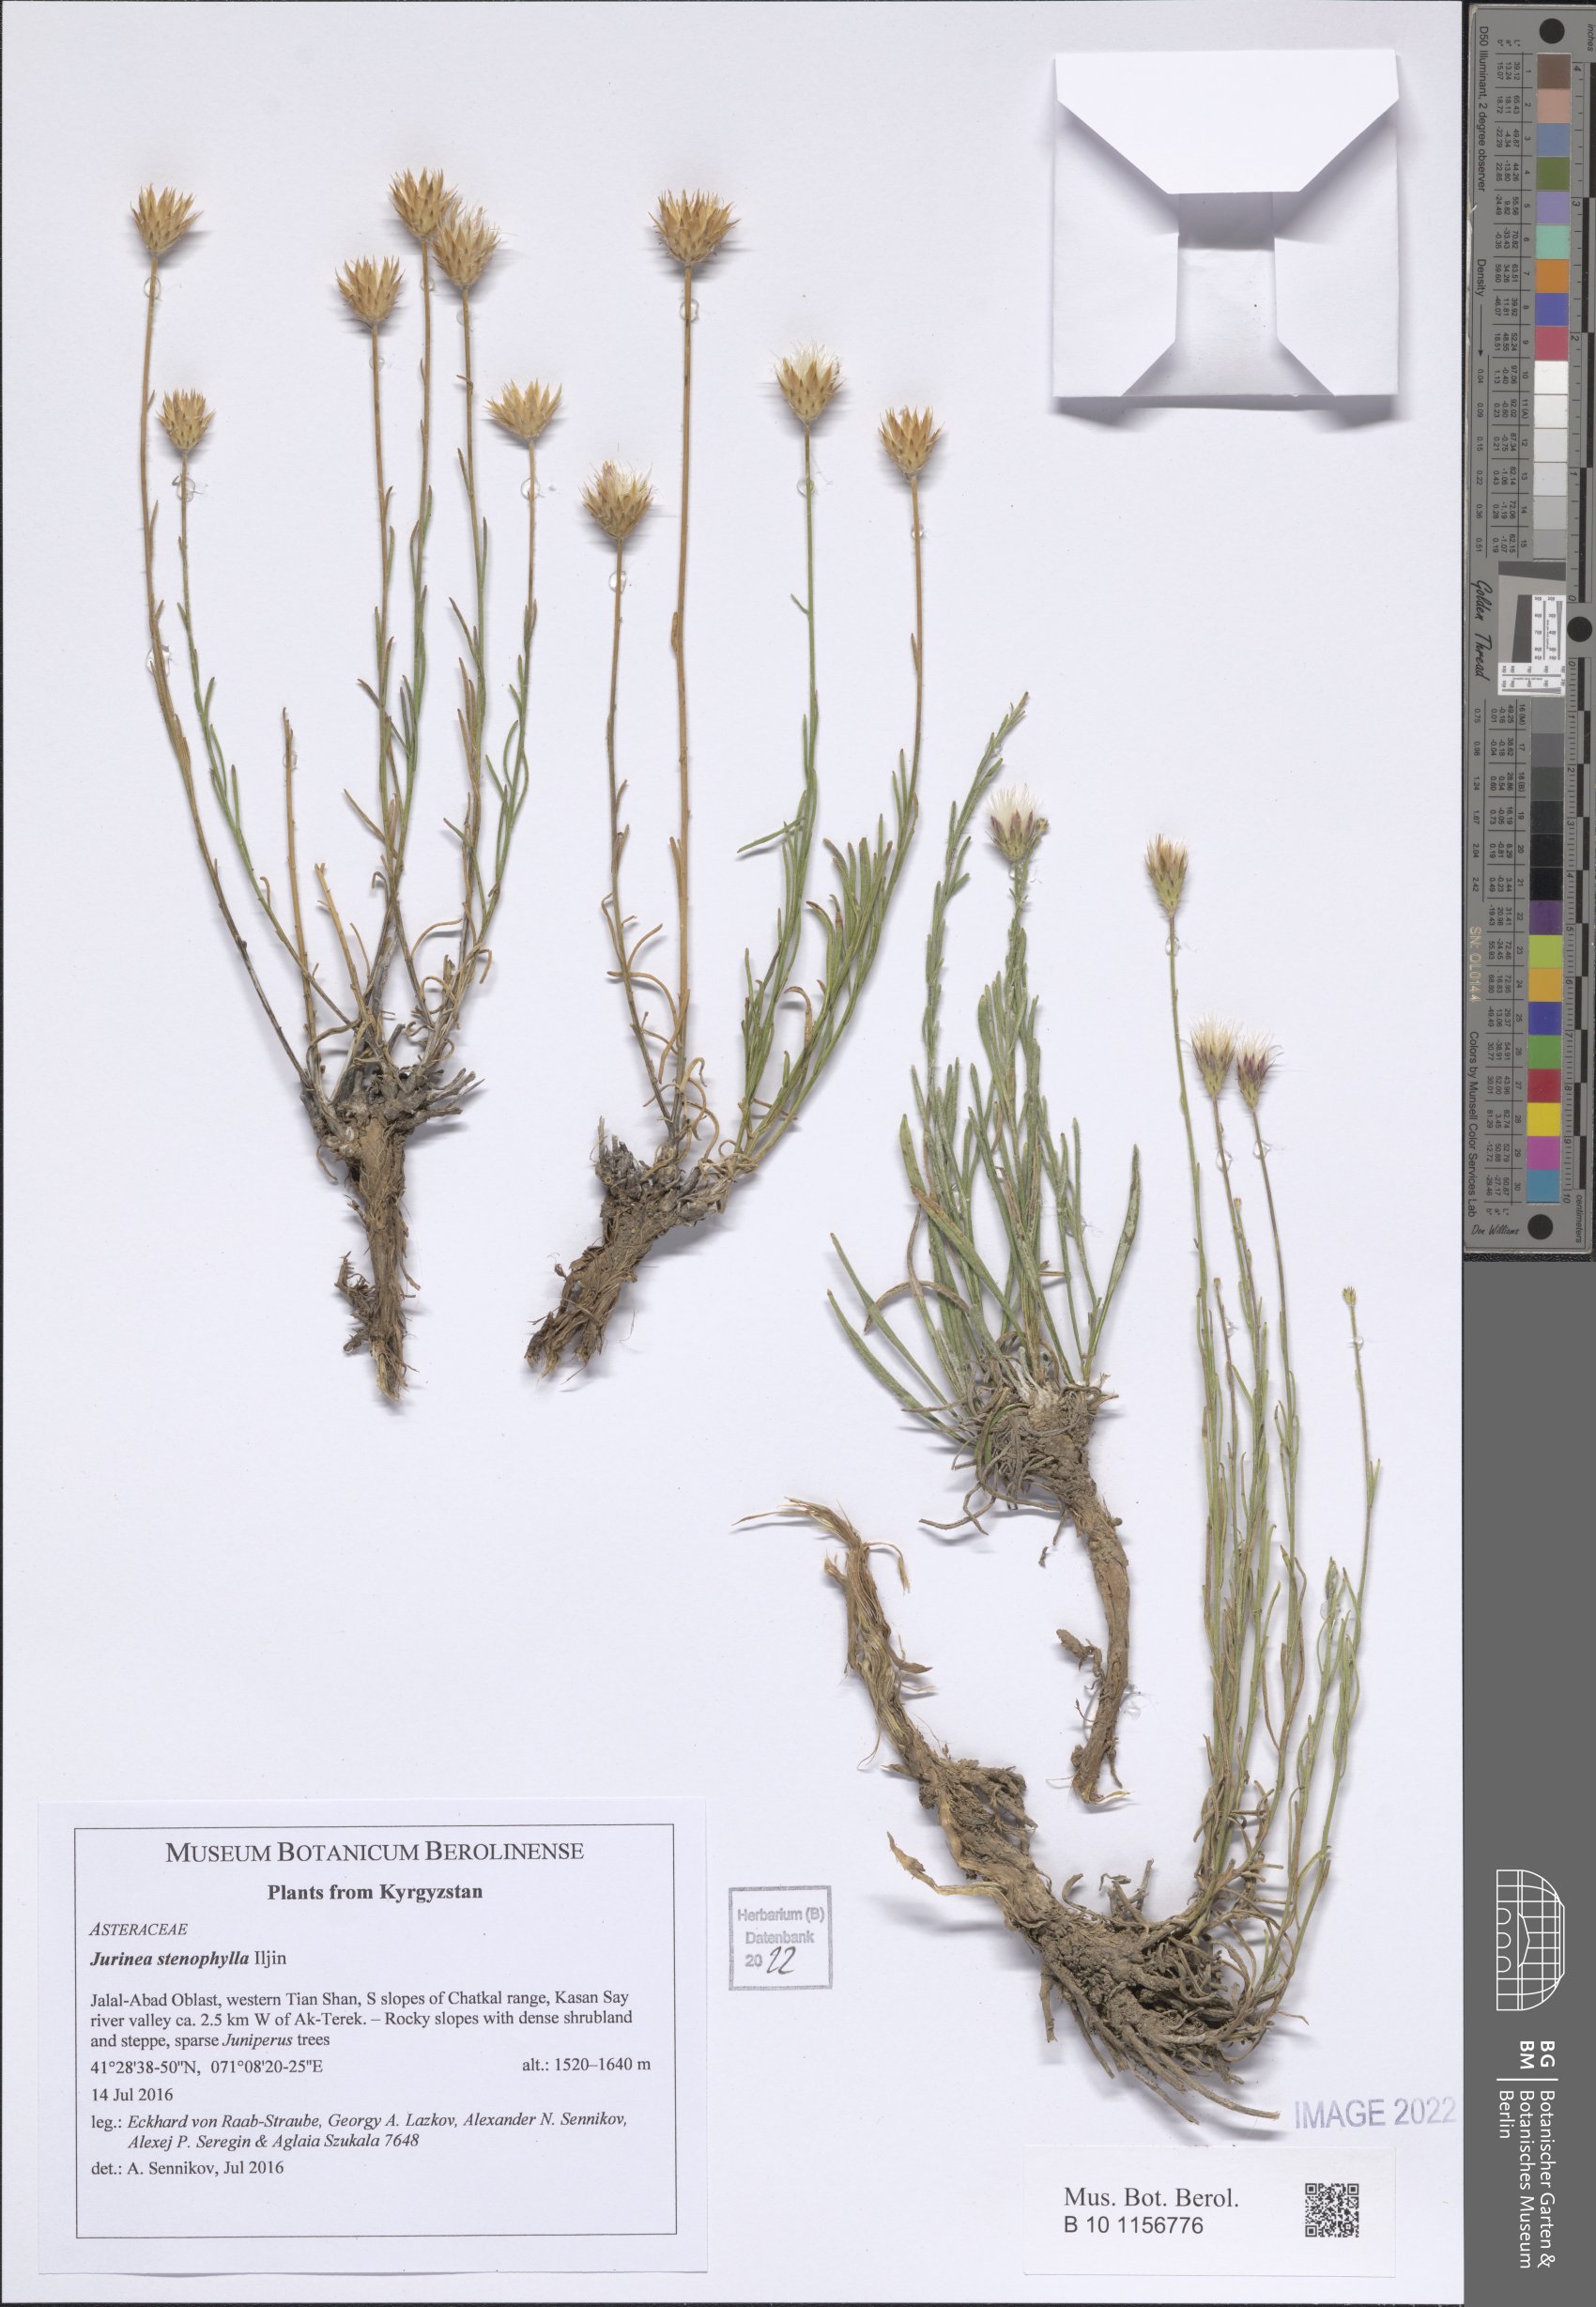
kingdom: Plantae
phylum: Tracheophyta
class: Magnoliopsida
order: Asterales
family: Asteraceae
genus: Jurinea
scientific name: Jurinea stenophylla
